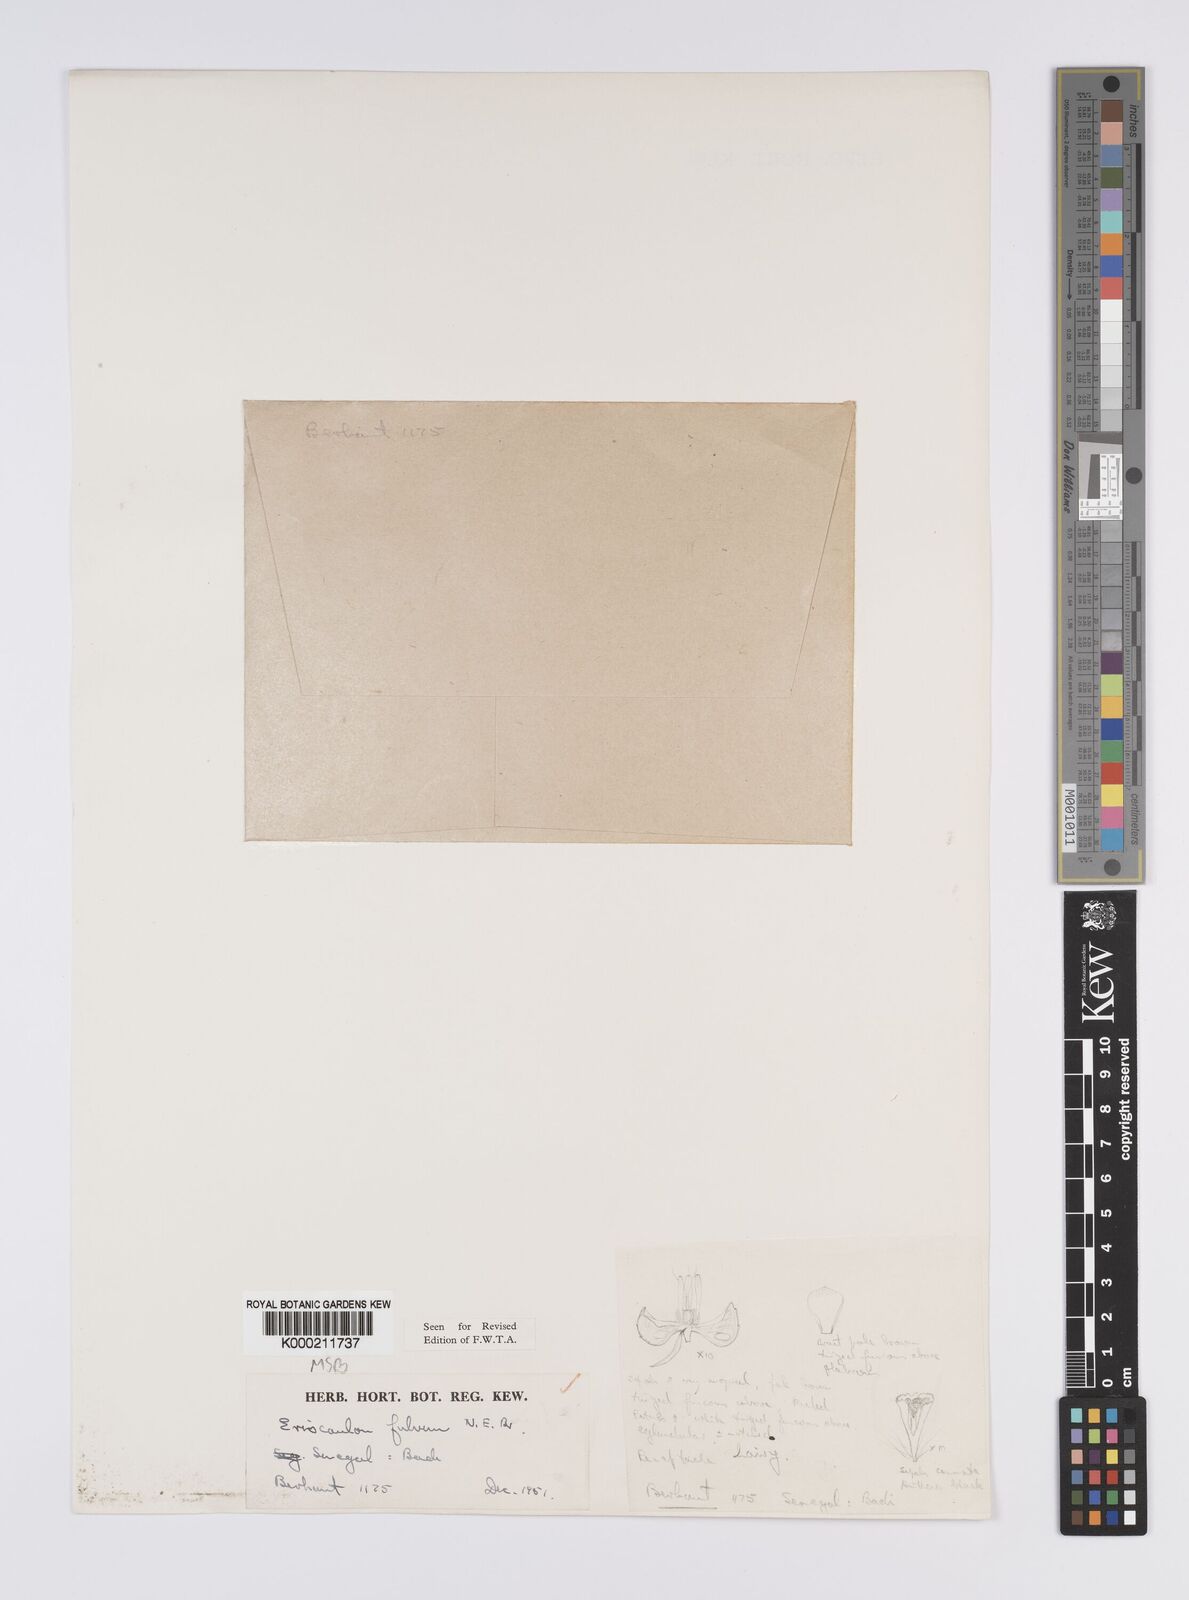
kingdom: Plantae
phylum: Tracheophyta
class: Liliopsida
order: Poales
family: Eriocaulaceae
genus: Eriocaulon
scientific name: Eriocaulon fulvum
